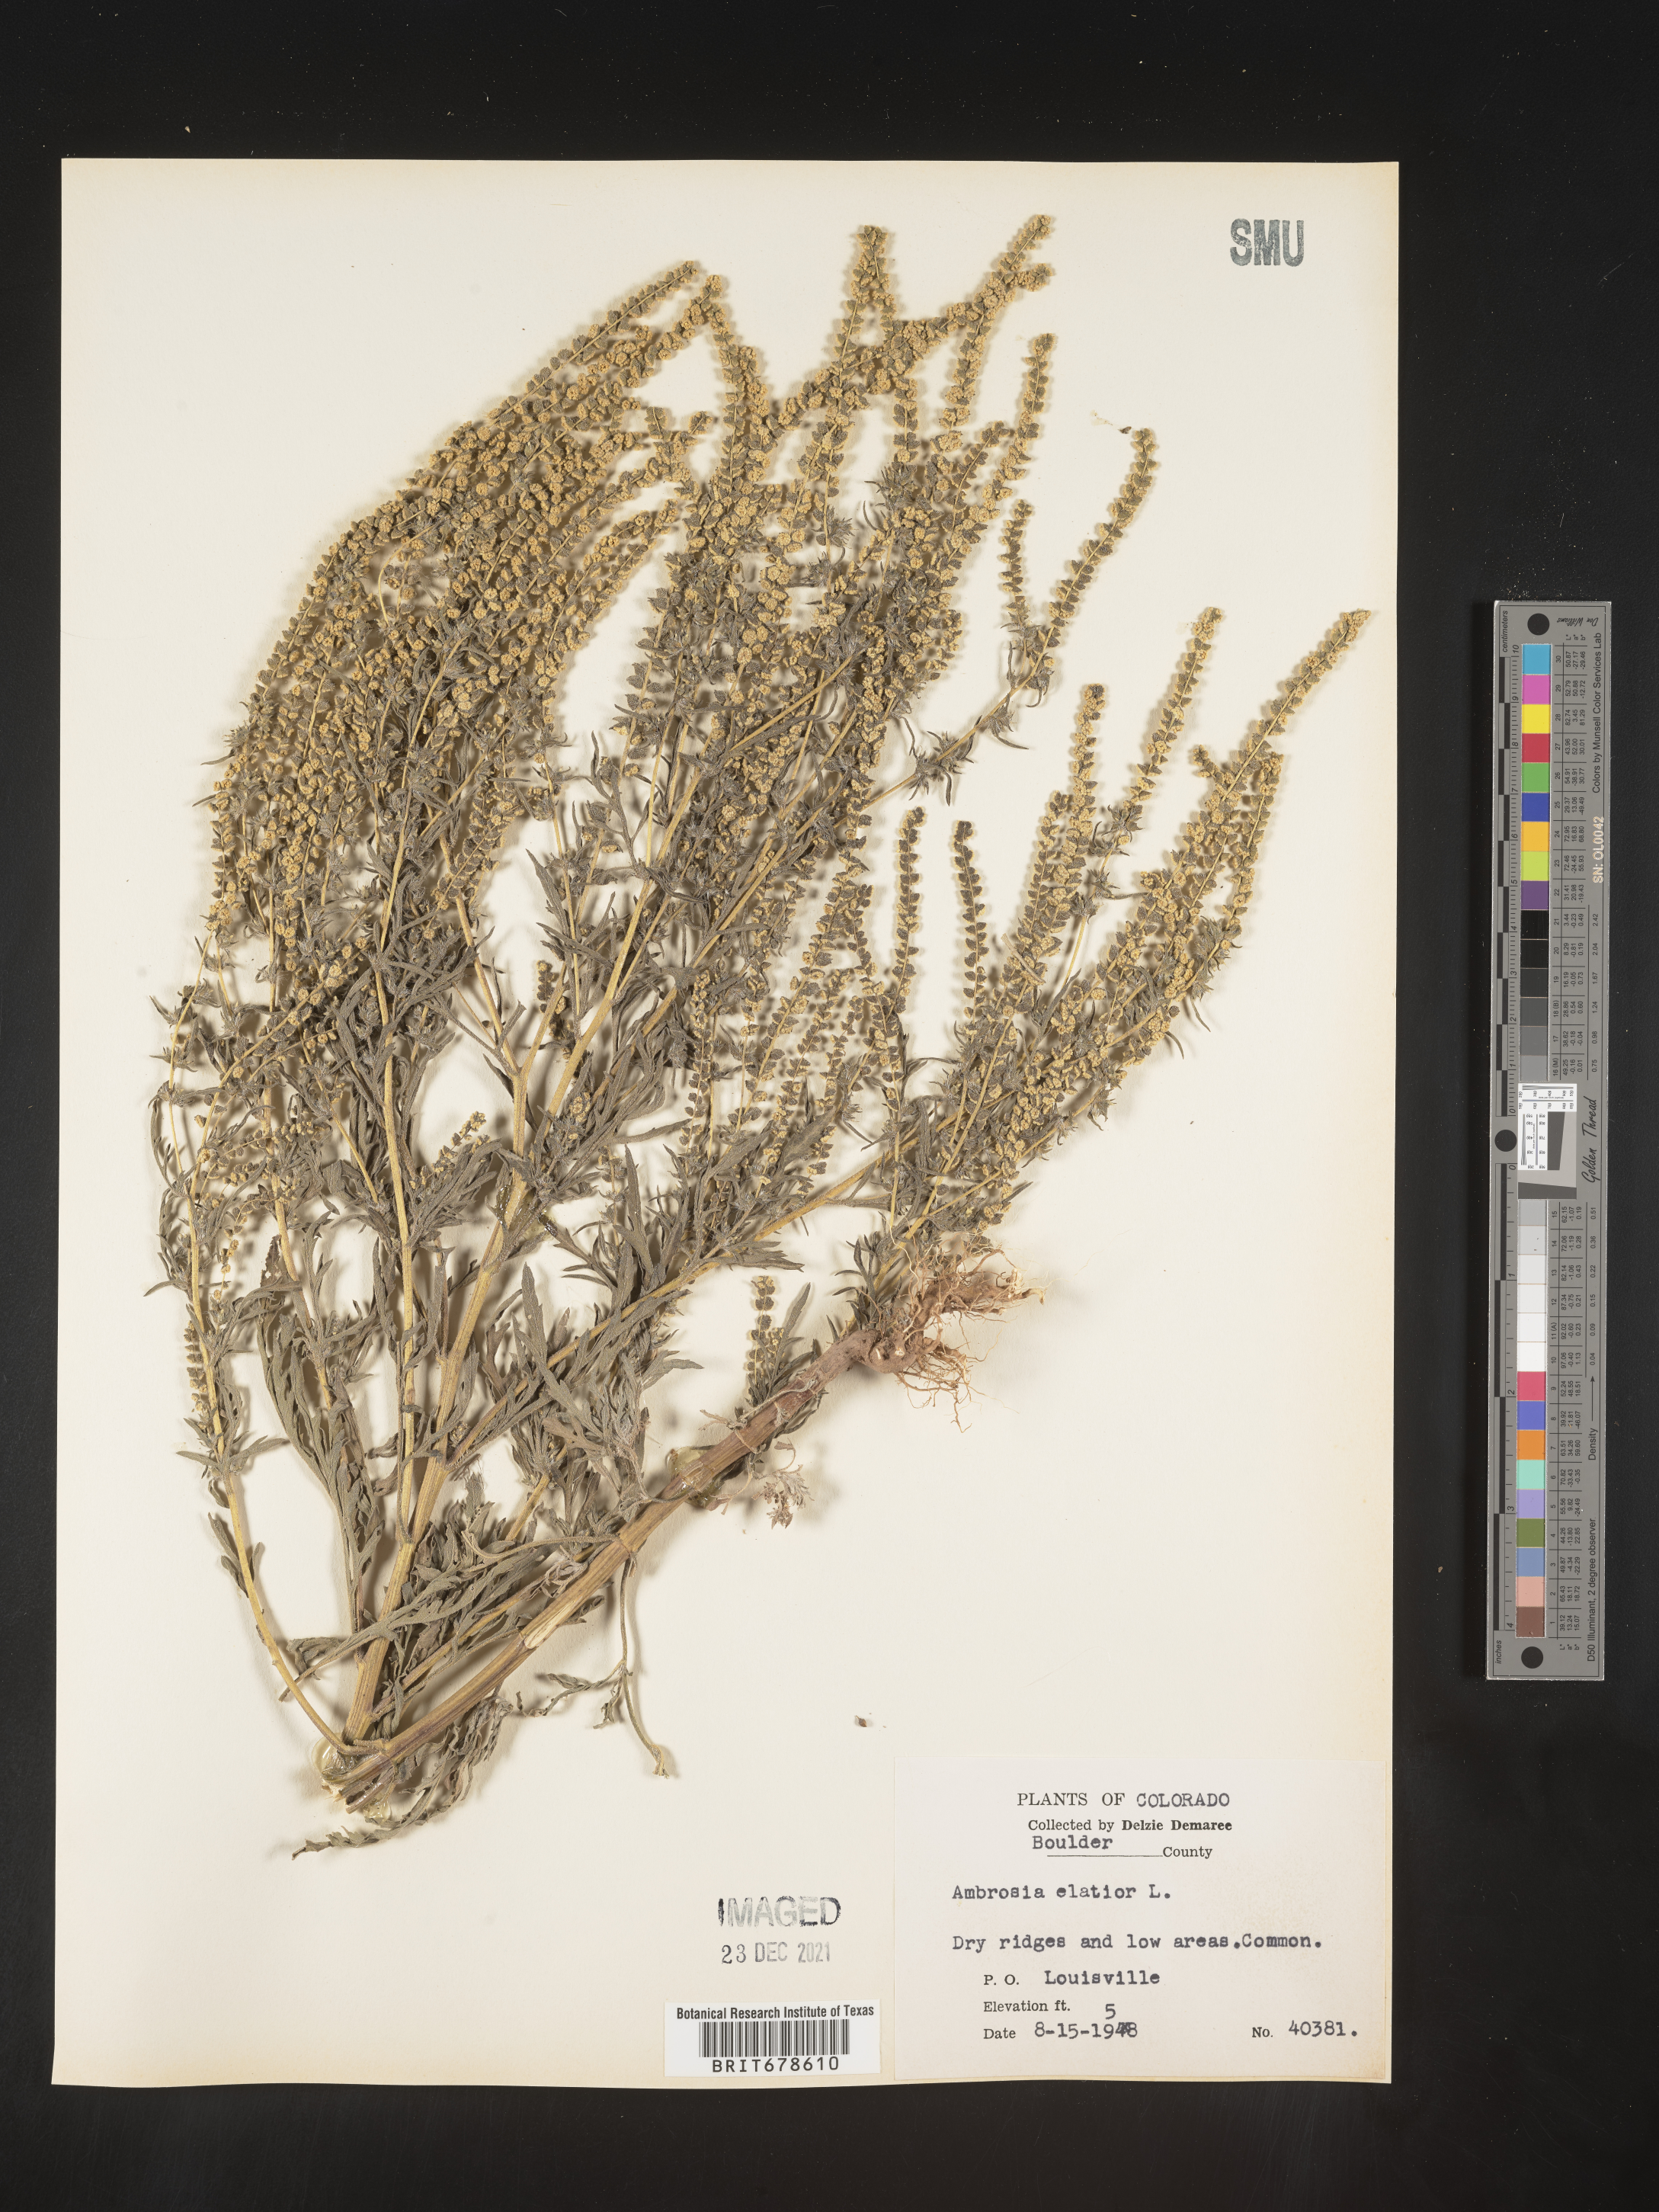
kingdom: Plantae
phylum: Tracheophyta
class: Magnoliopsida
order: Asterales
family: Asteraceae
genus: Ambrosia
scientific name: Ambrosia polystachya
